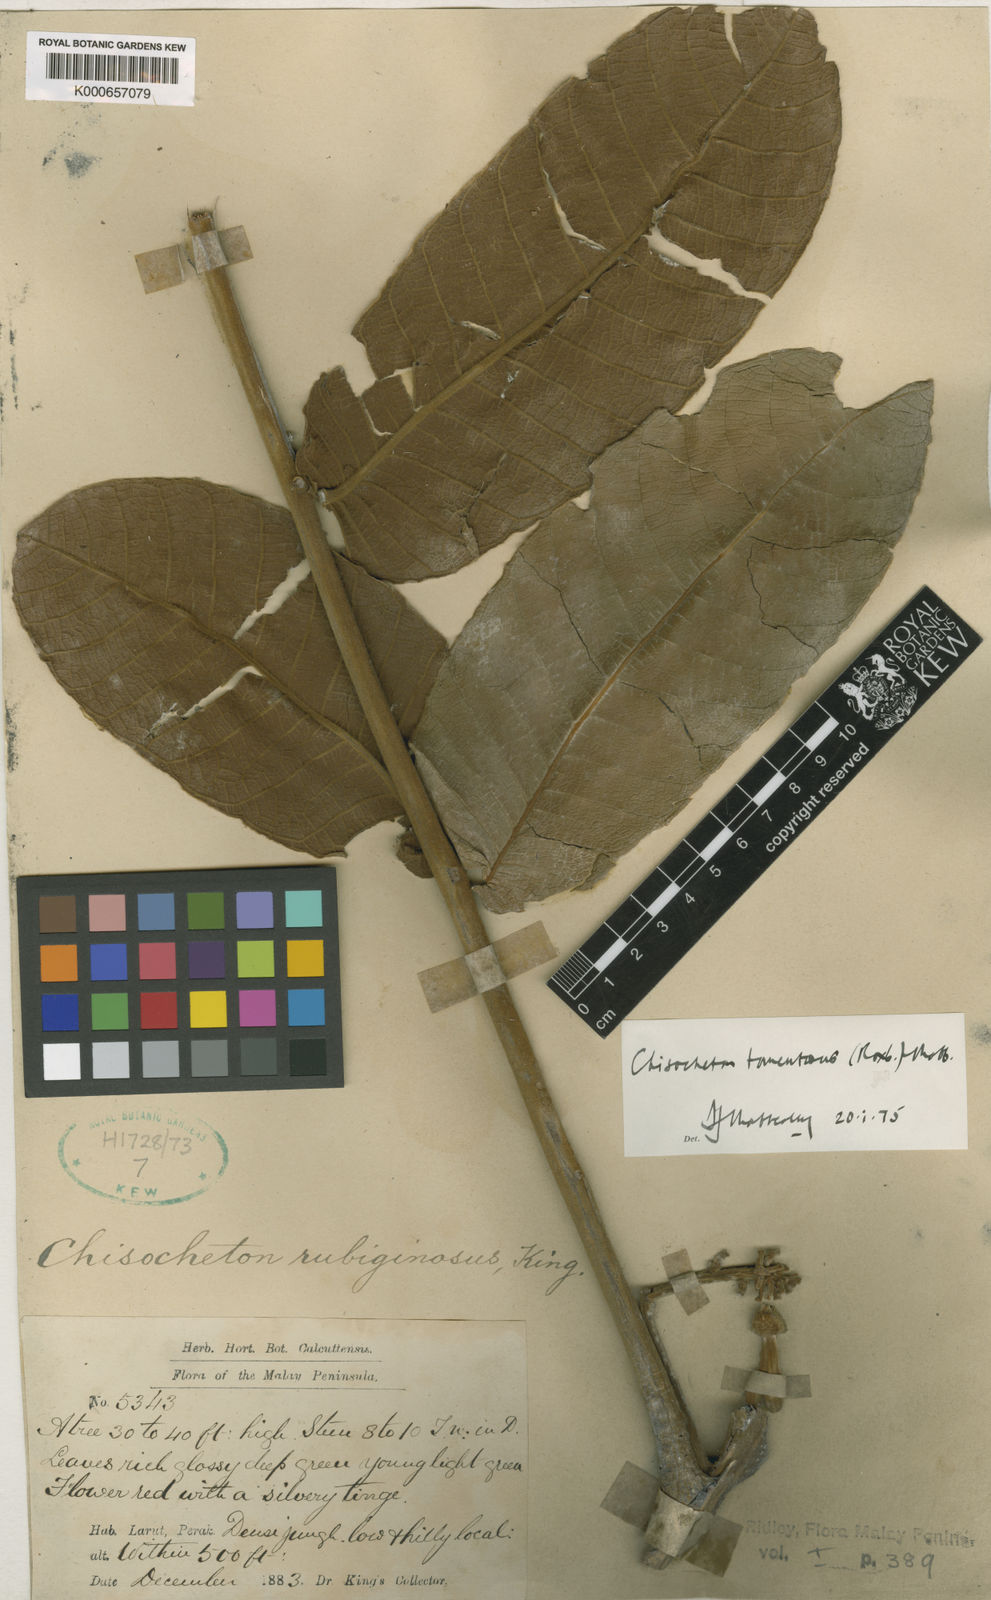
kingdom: Plantae
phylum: Tracheophyta
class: Magnoliopsida
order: Sapindales
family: Meliaceae
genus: Chisocheton
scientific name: Chisocheton tomentosus
